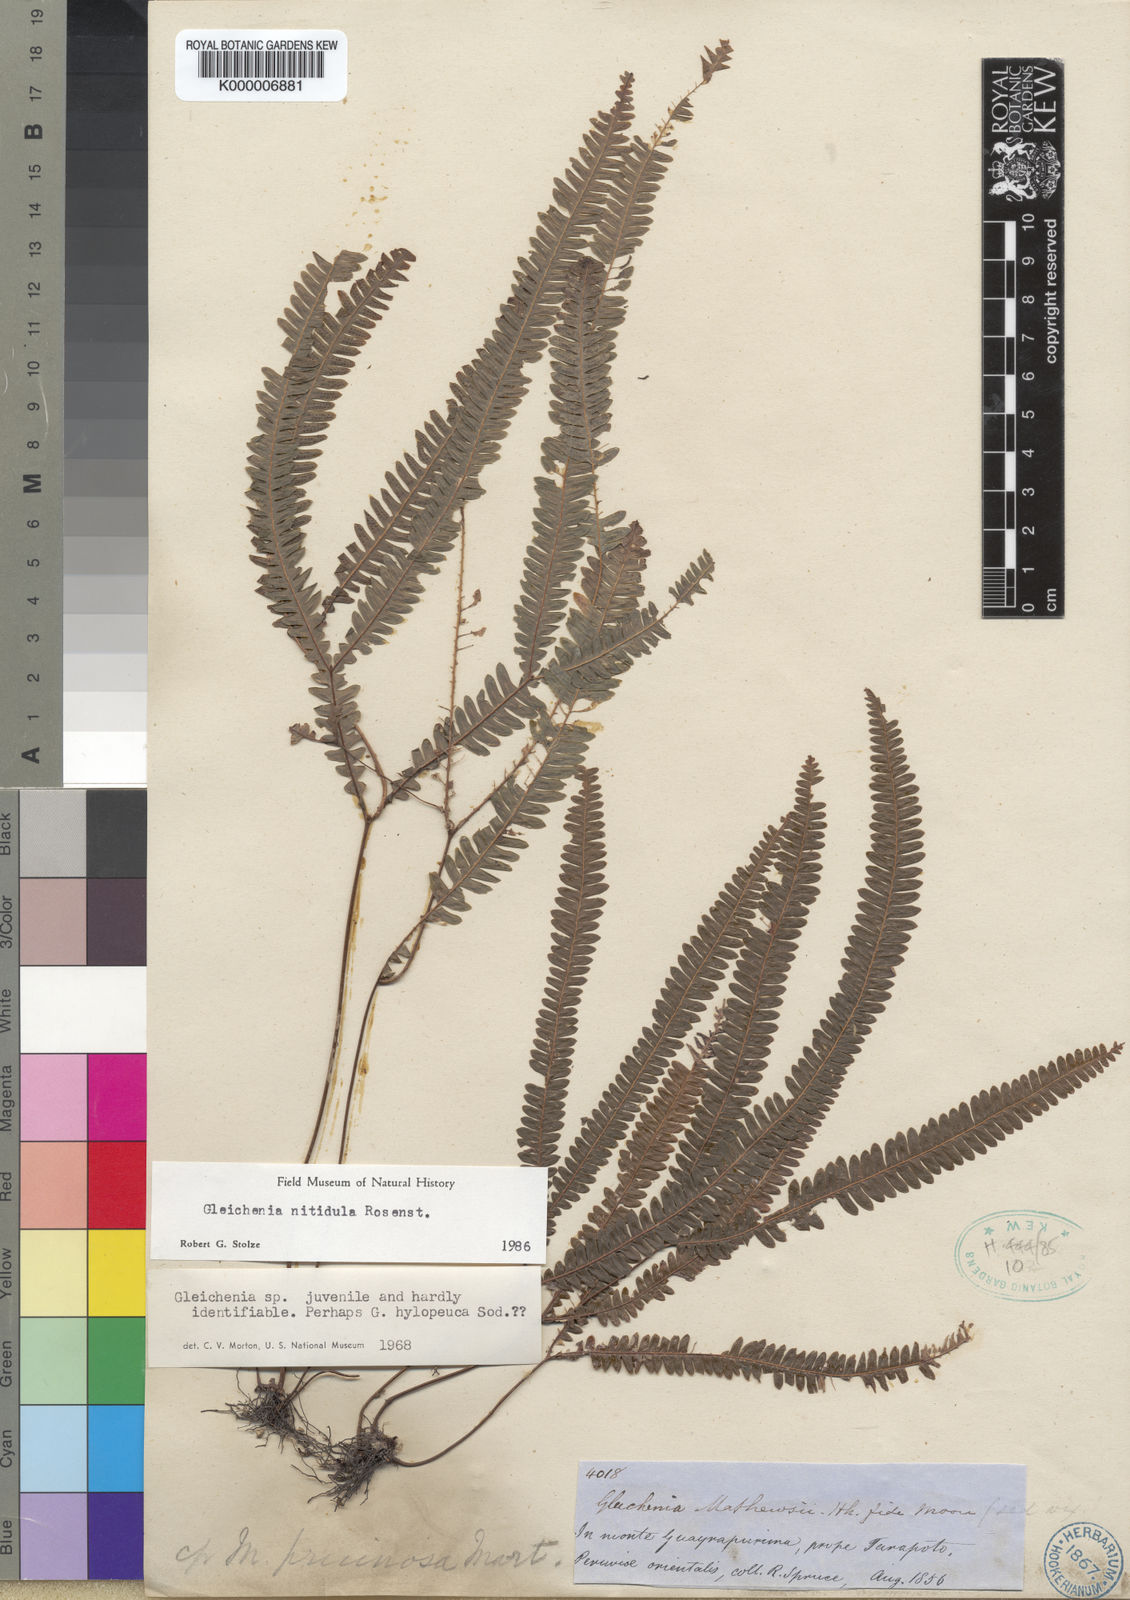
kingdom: Plantae
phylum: Tracheophyta
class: Polypodiopsida
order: Gleicheniales
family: Gleicheniaceae
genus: Sticherus
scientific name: Sticherus hypoleucus
